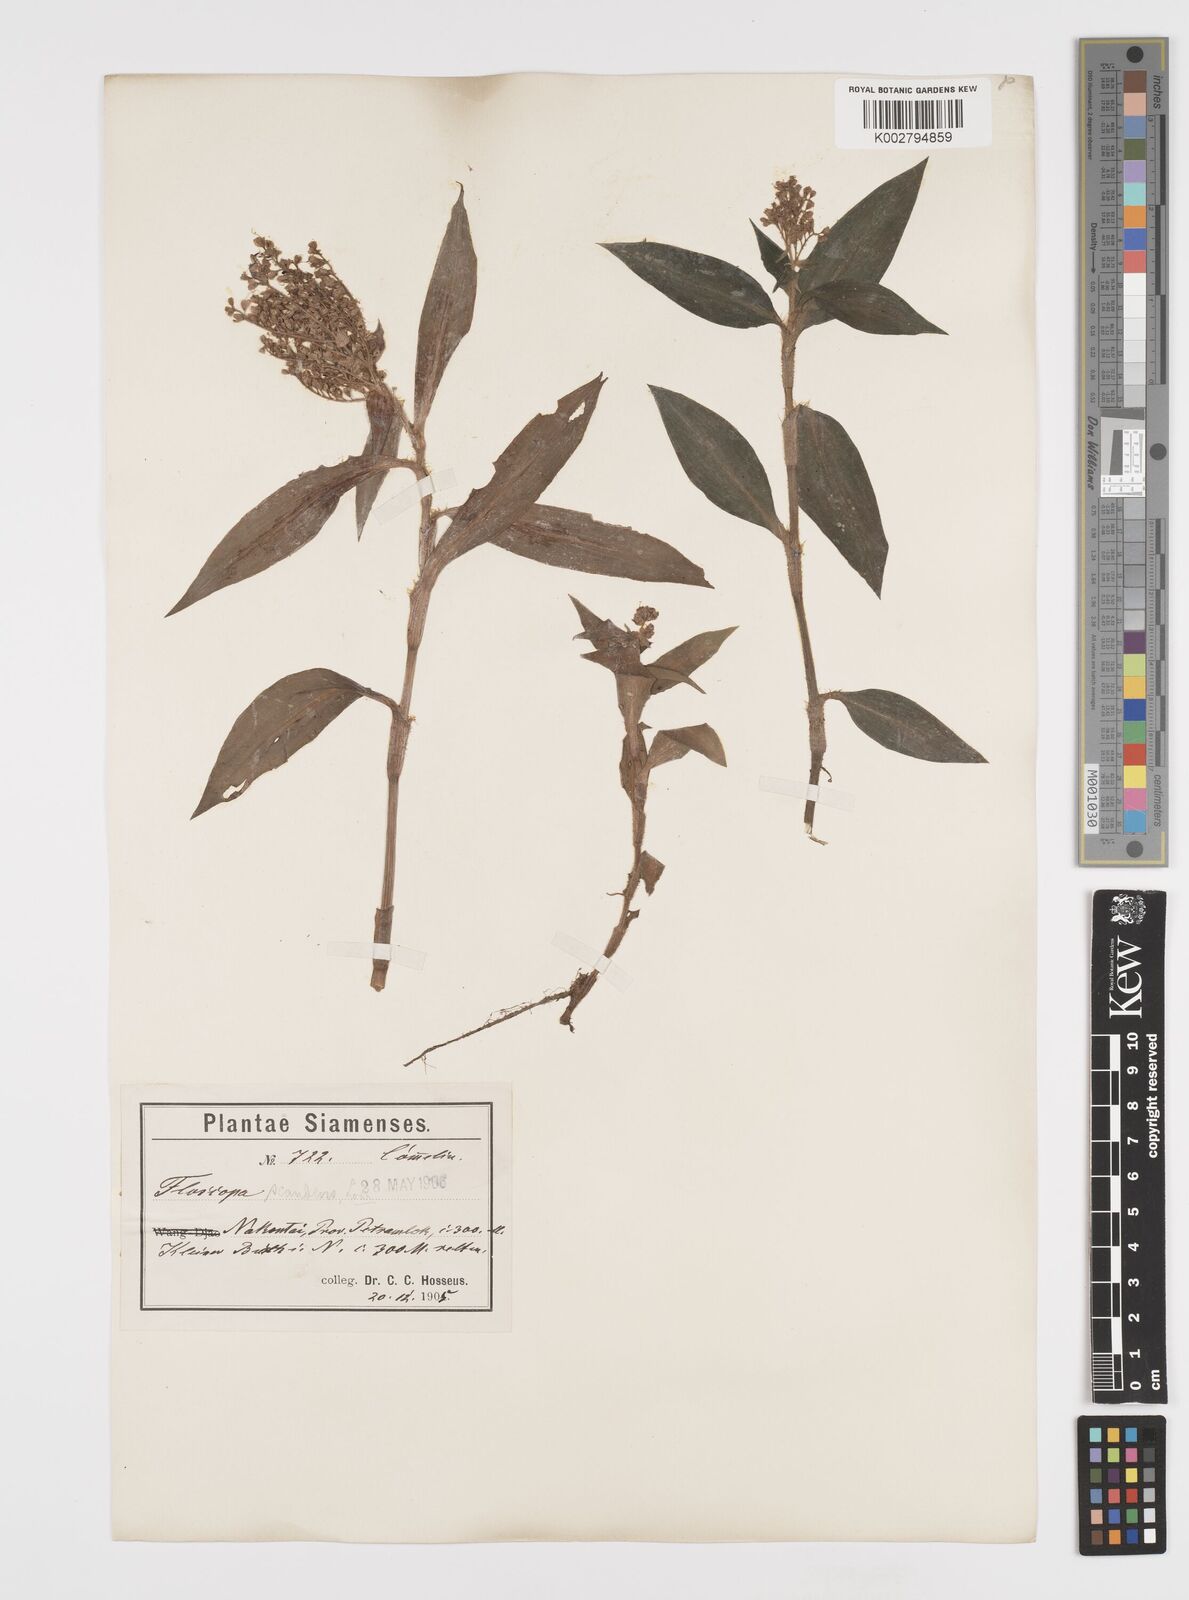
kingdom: Plantae
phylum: Tracheophyta
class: Liliopsida
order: Commelinales
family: Commelinaceae
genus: Floscopa
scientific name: Floscopa scandens
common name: Climbing flower cup
